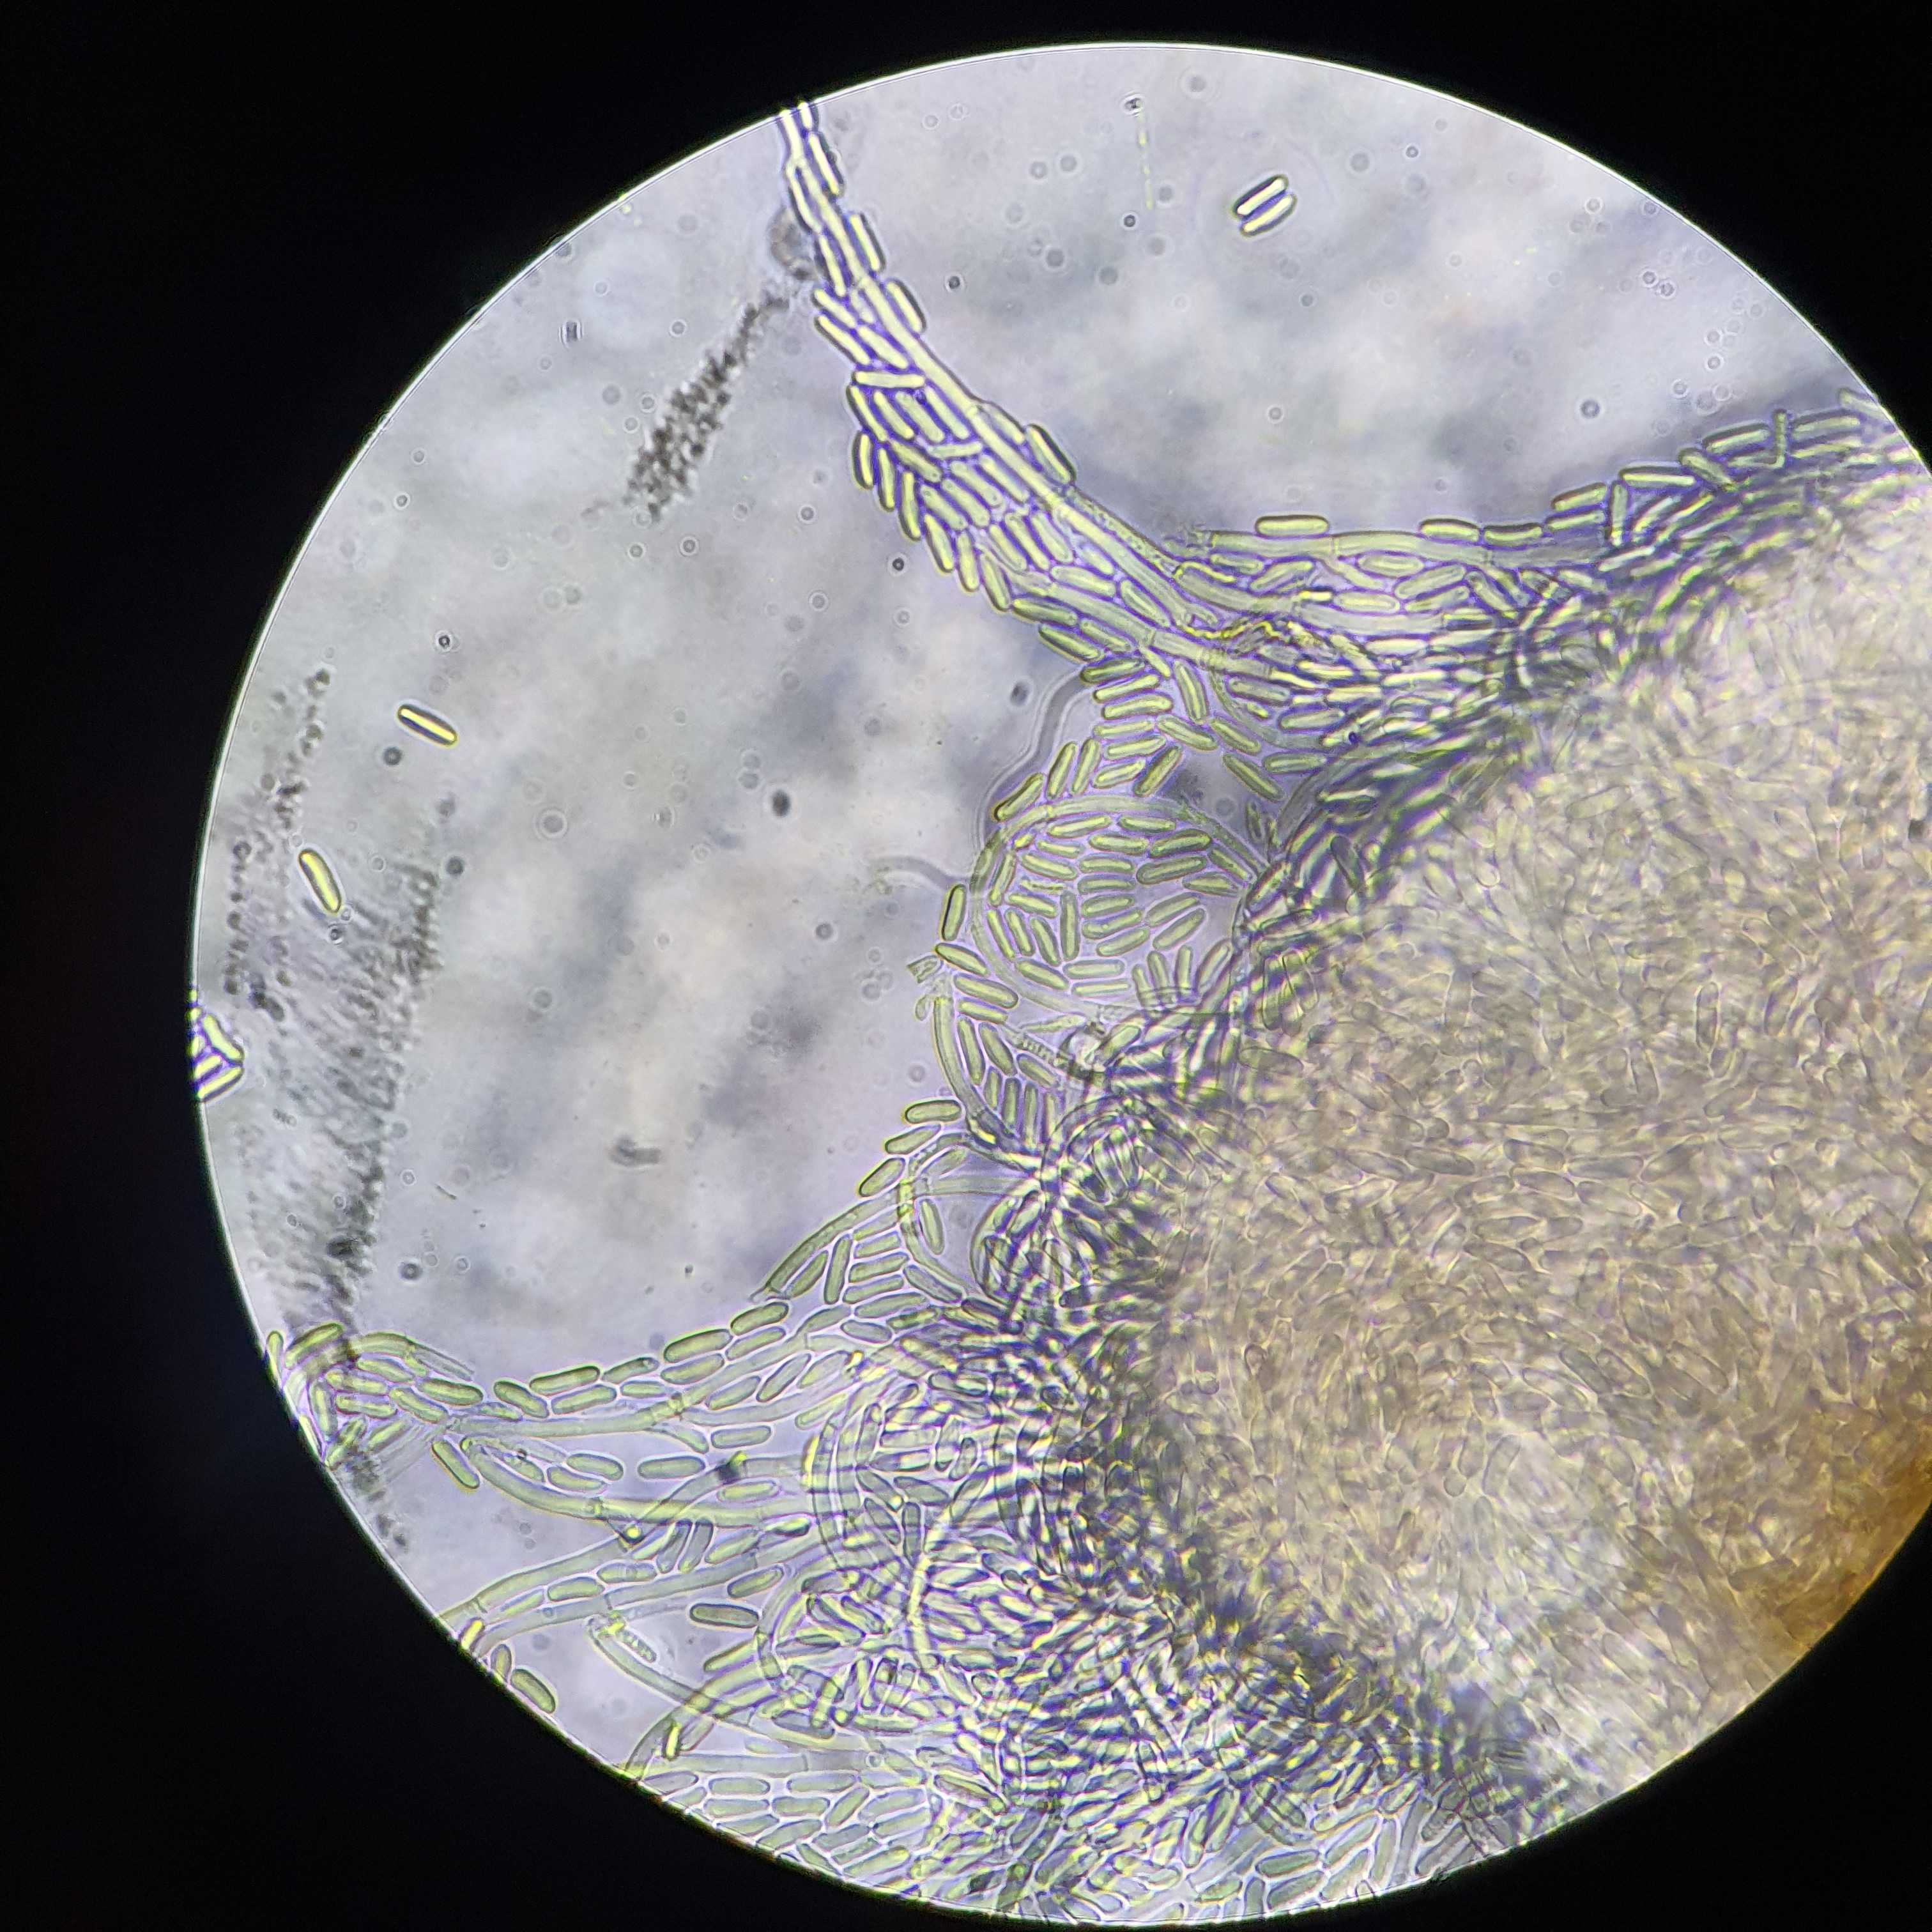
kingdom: Fungi
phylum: Ascomycota
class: Sordariomycetes
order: Hypocreales
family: Nectriaceae
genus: Nectria
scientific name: Nectria
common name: cinnobersvamp
